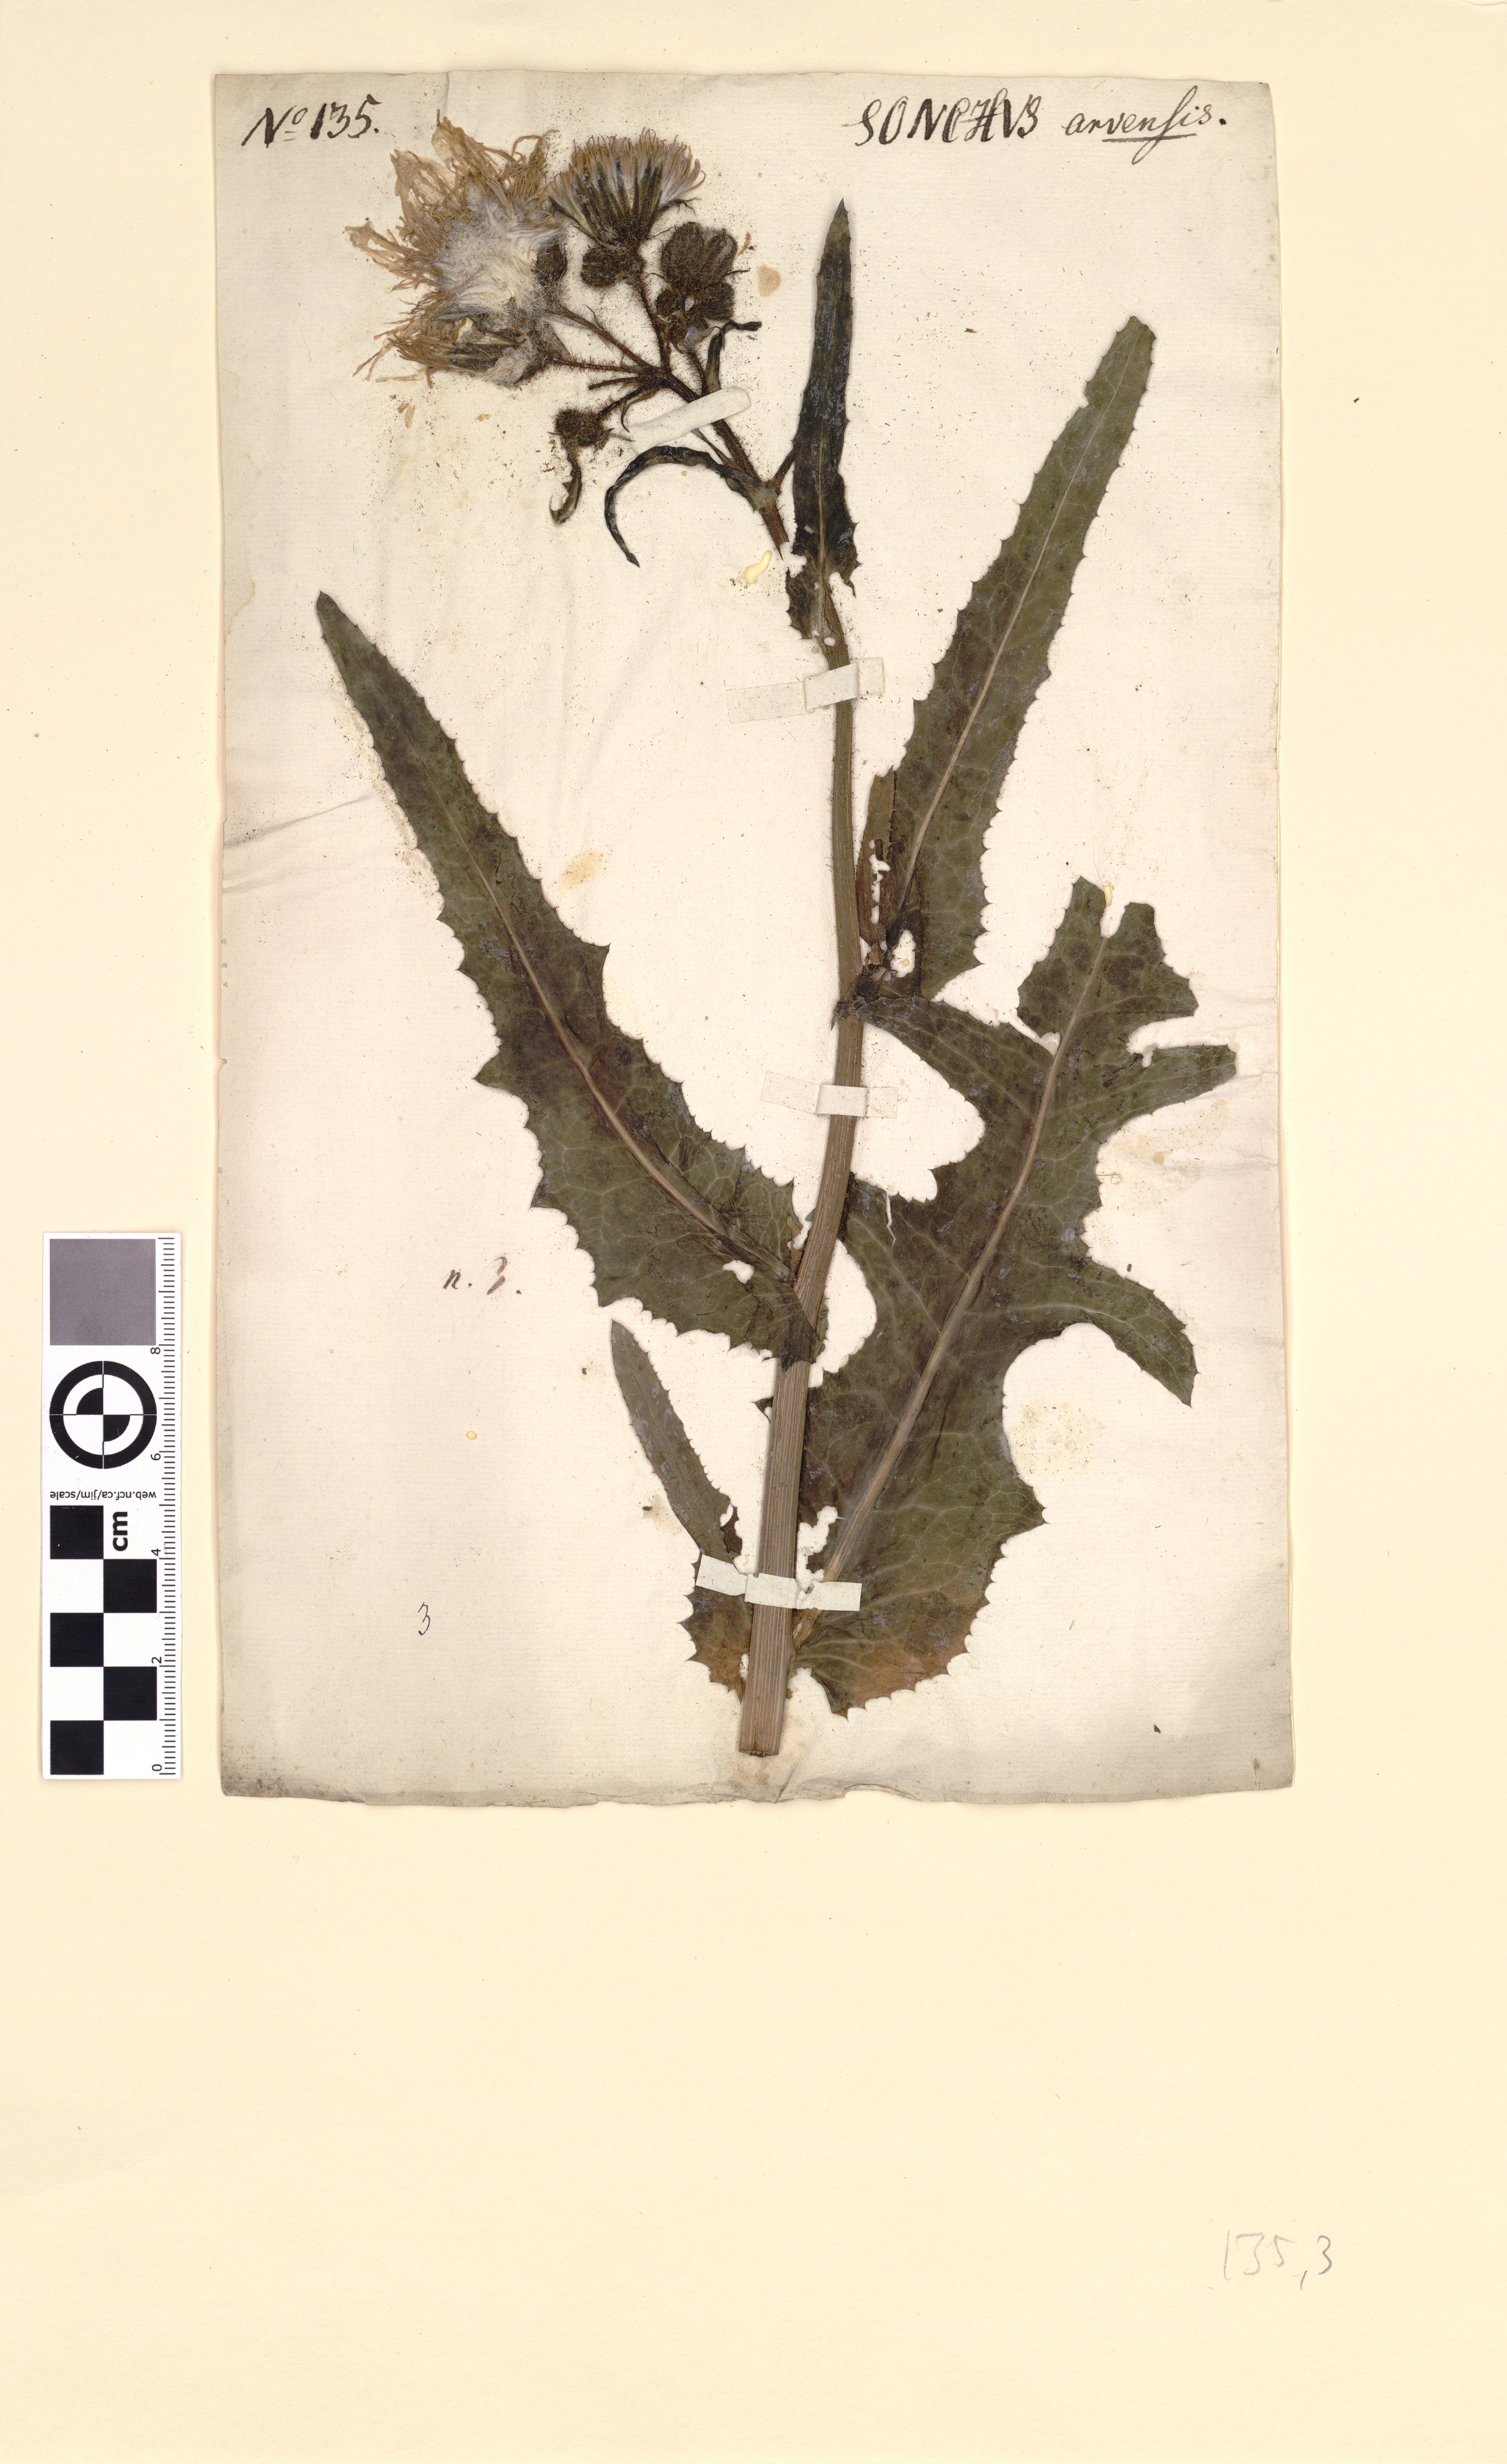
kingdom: Plantae
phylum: Tracheophyta
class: Magnoliopsida
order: Asterales
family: Asteraceae
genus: Sonchus
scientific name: Sonchus arvensis
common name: Perennial sow-thistle
